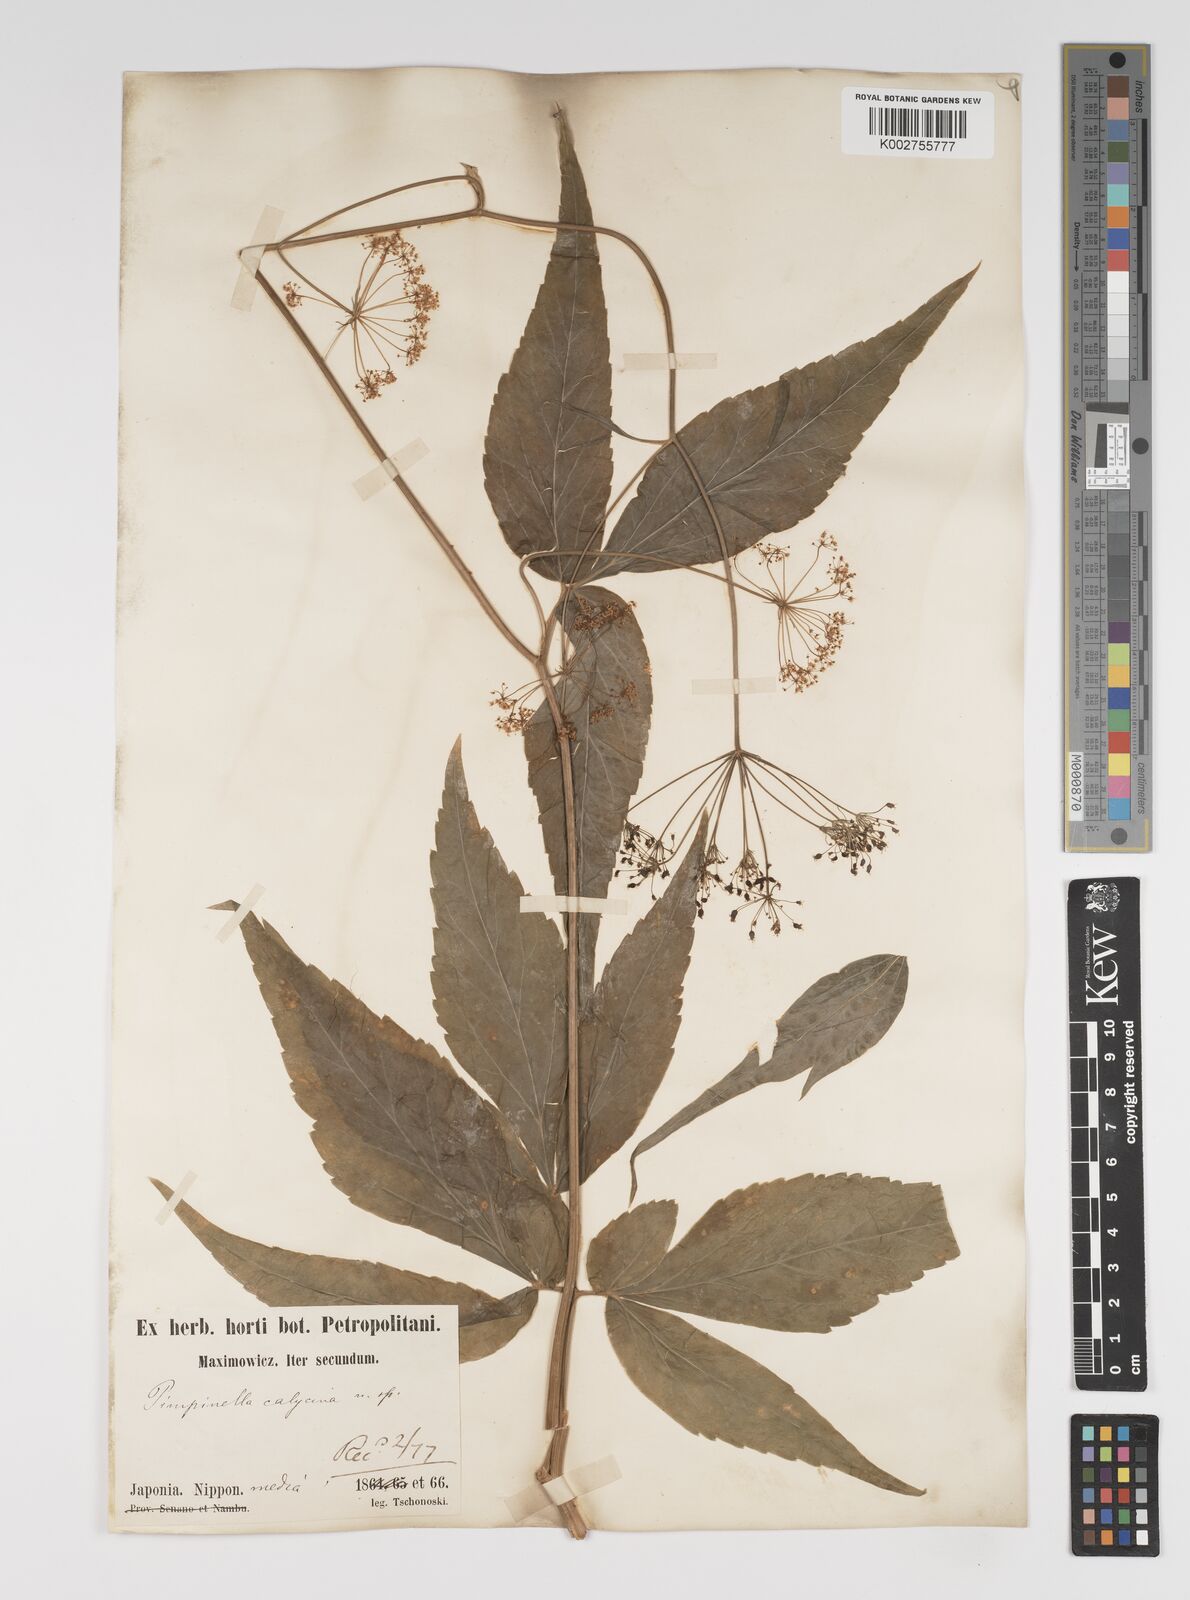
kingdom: Plantae
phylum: Tracheophyta
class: Magnoliopsida
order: Apiales
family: Apiaceae
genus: Spuriopimpinella
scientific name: Spuriopimpinella calycina
